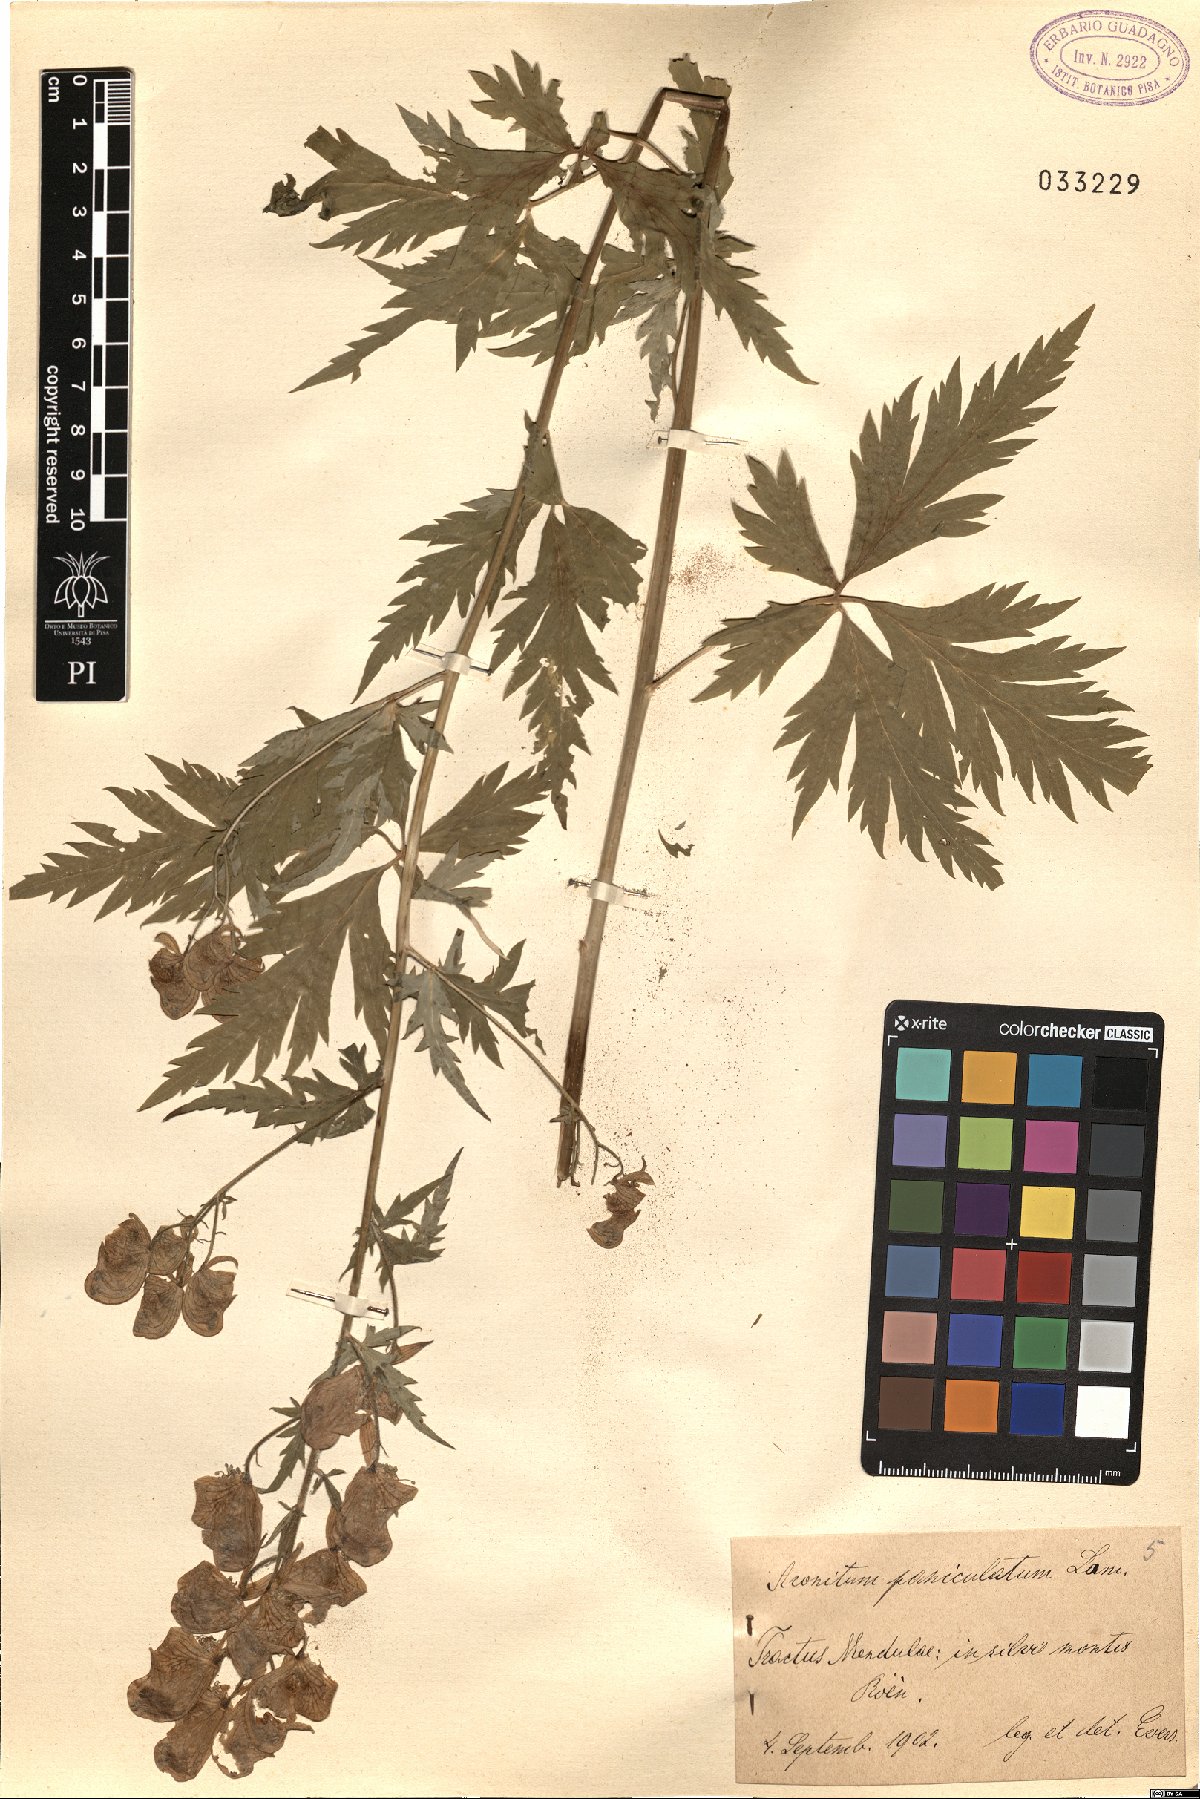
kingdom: Plantae
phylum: Tracheophyta
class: Magnoliopsida
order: Ranunculales
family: Ranunculaceae
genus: Aconitum
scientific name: Aconitum degenii
